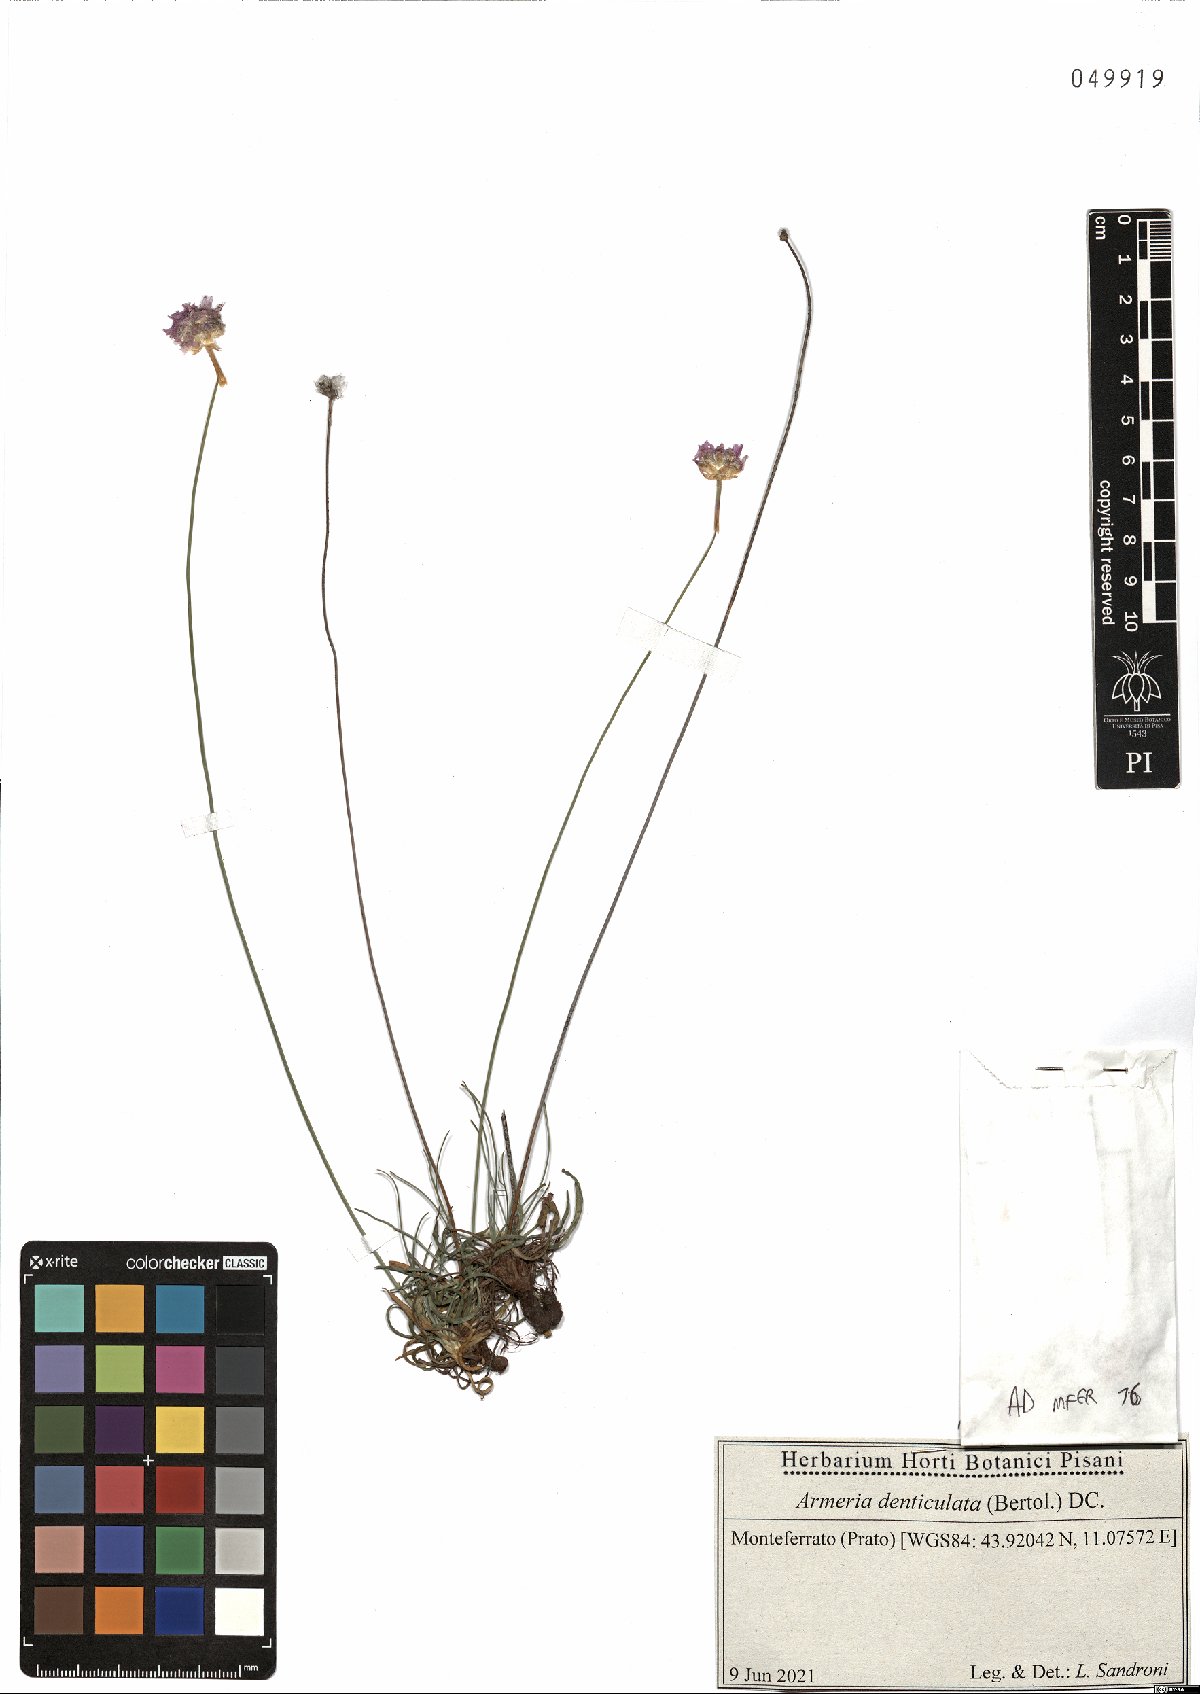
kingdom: Plantae
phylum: Tracheophyta
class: Magnoliopsida
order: Caryophyllales
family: Plumbaginaceae
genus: Armeria
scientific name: Armeria denticulata
